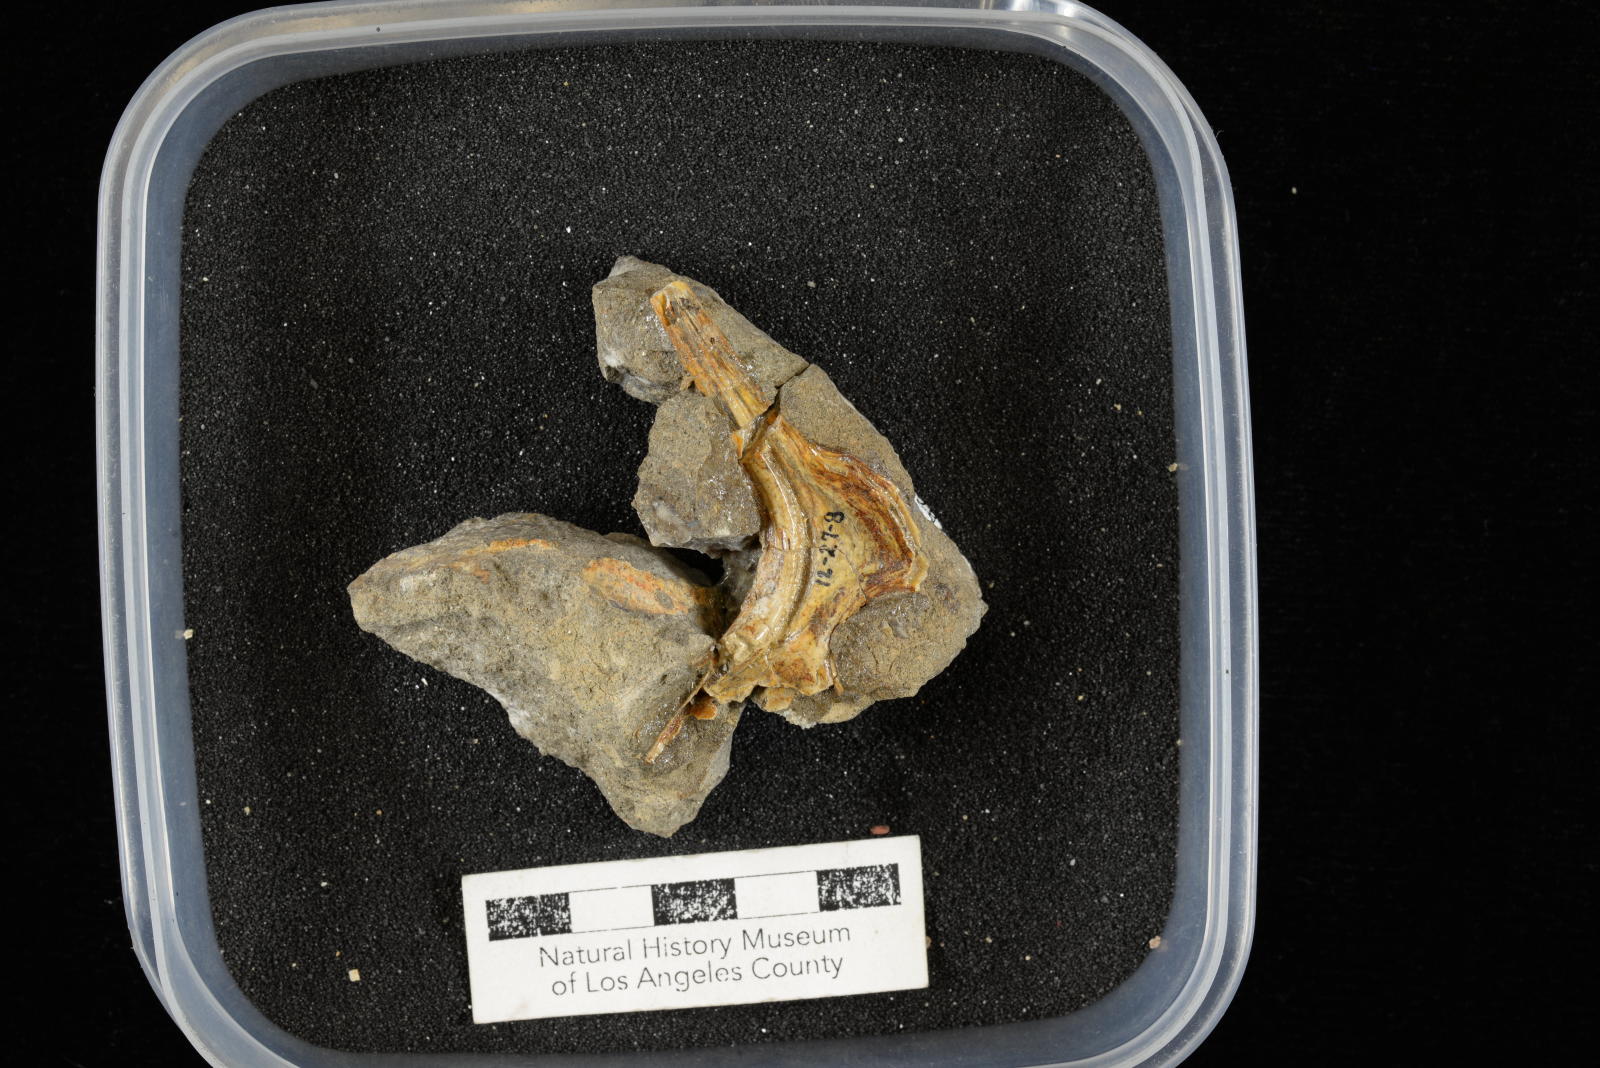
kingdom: Animalia
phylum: Mollusca
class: Gastropoda
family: Nerineidae
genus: Nerinea
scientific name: Nerinea stewarti
